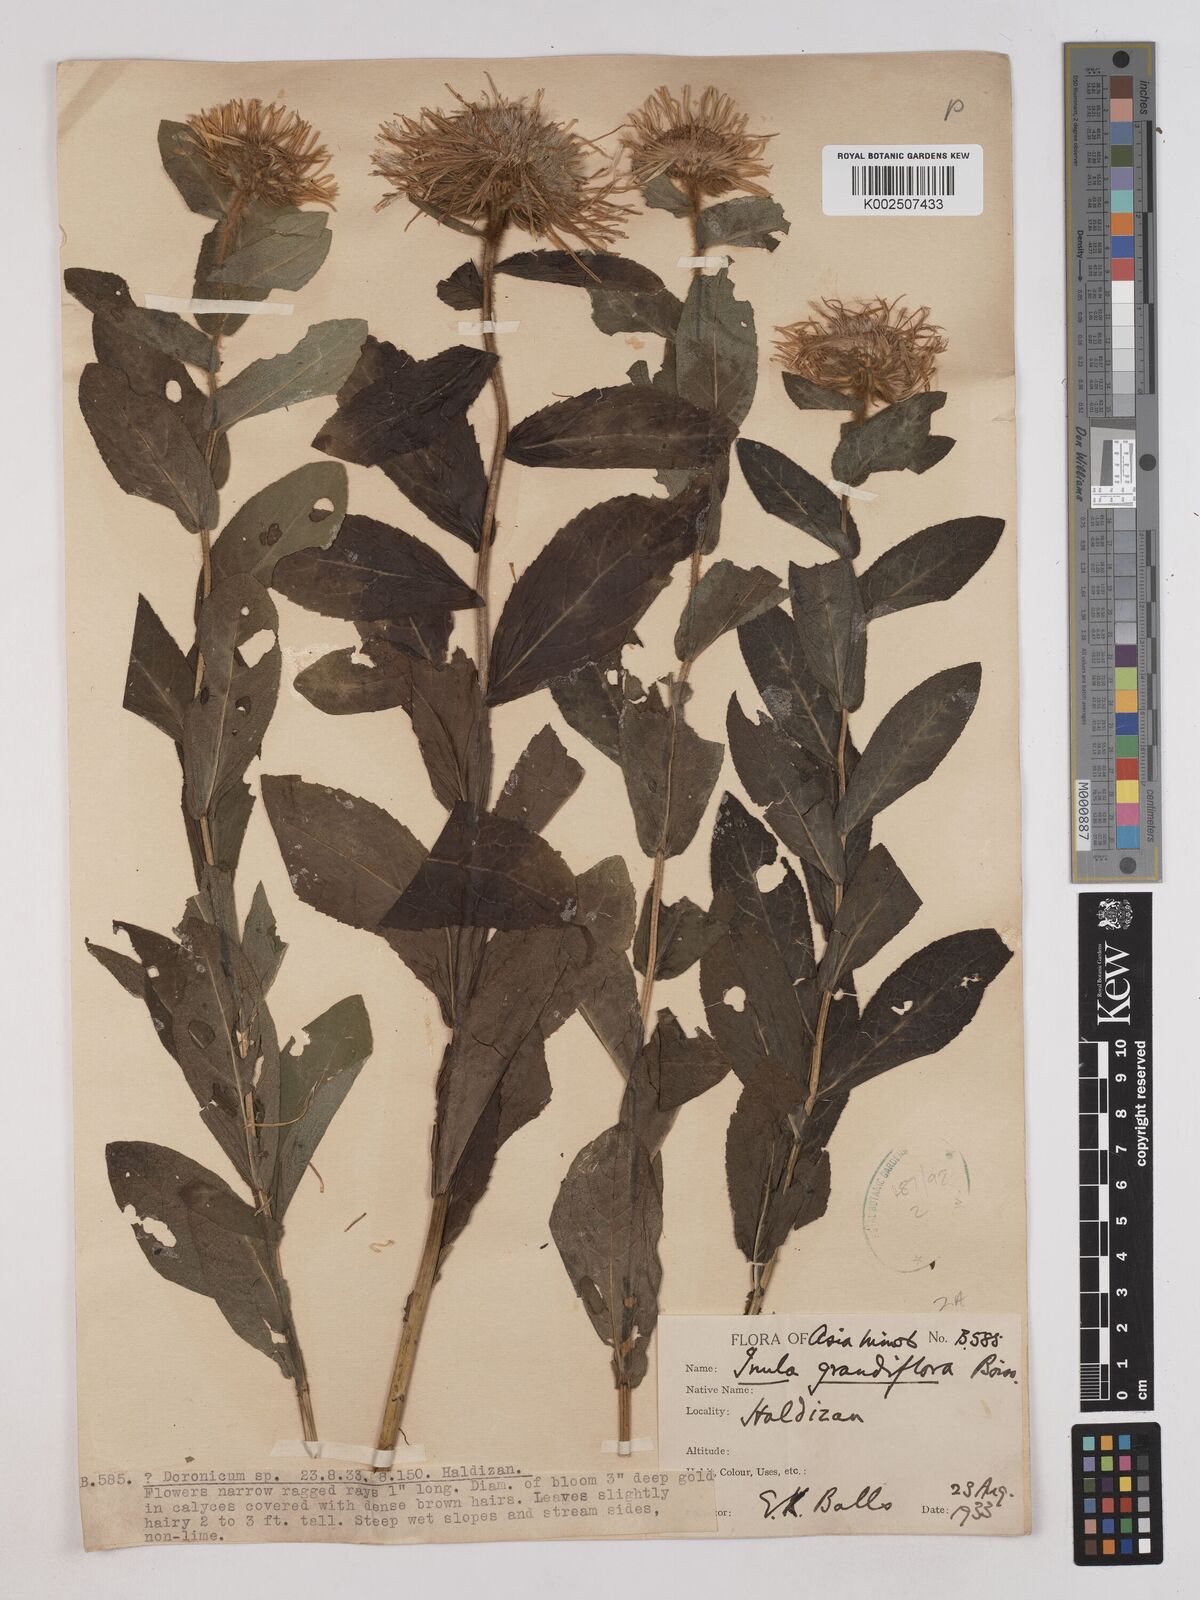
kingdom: Plantae
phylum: Tracheophyta
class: Magnoliopsida
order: Asterales
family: Asteraceae
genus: Pentanema
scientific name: Pentanema orientale
